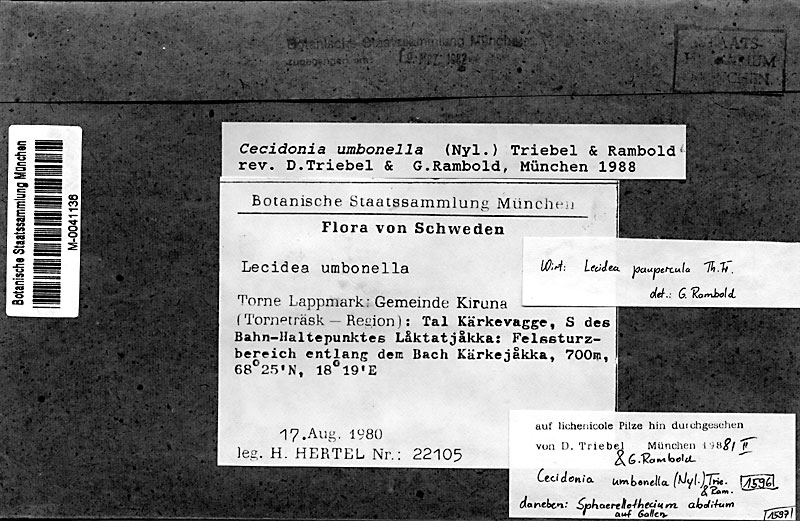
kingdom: Fungi
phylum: Ascomycota
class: Lecanoromycetes
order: Lecideales
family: Lecideaceae
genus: Lecidea
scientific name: Lecidea paupercula
